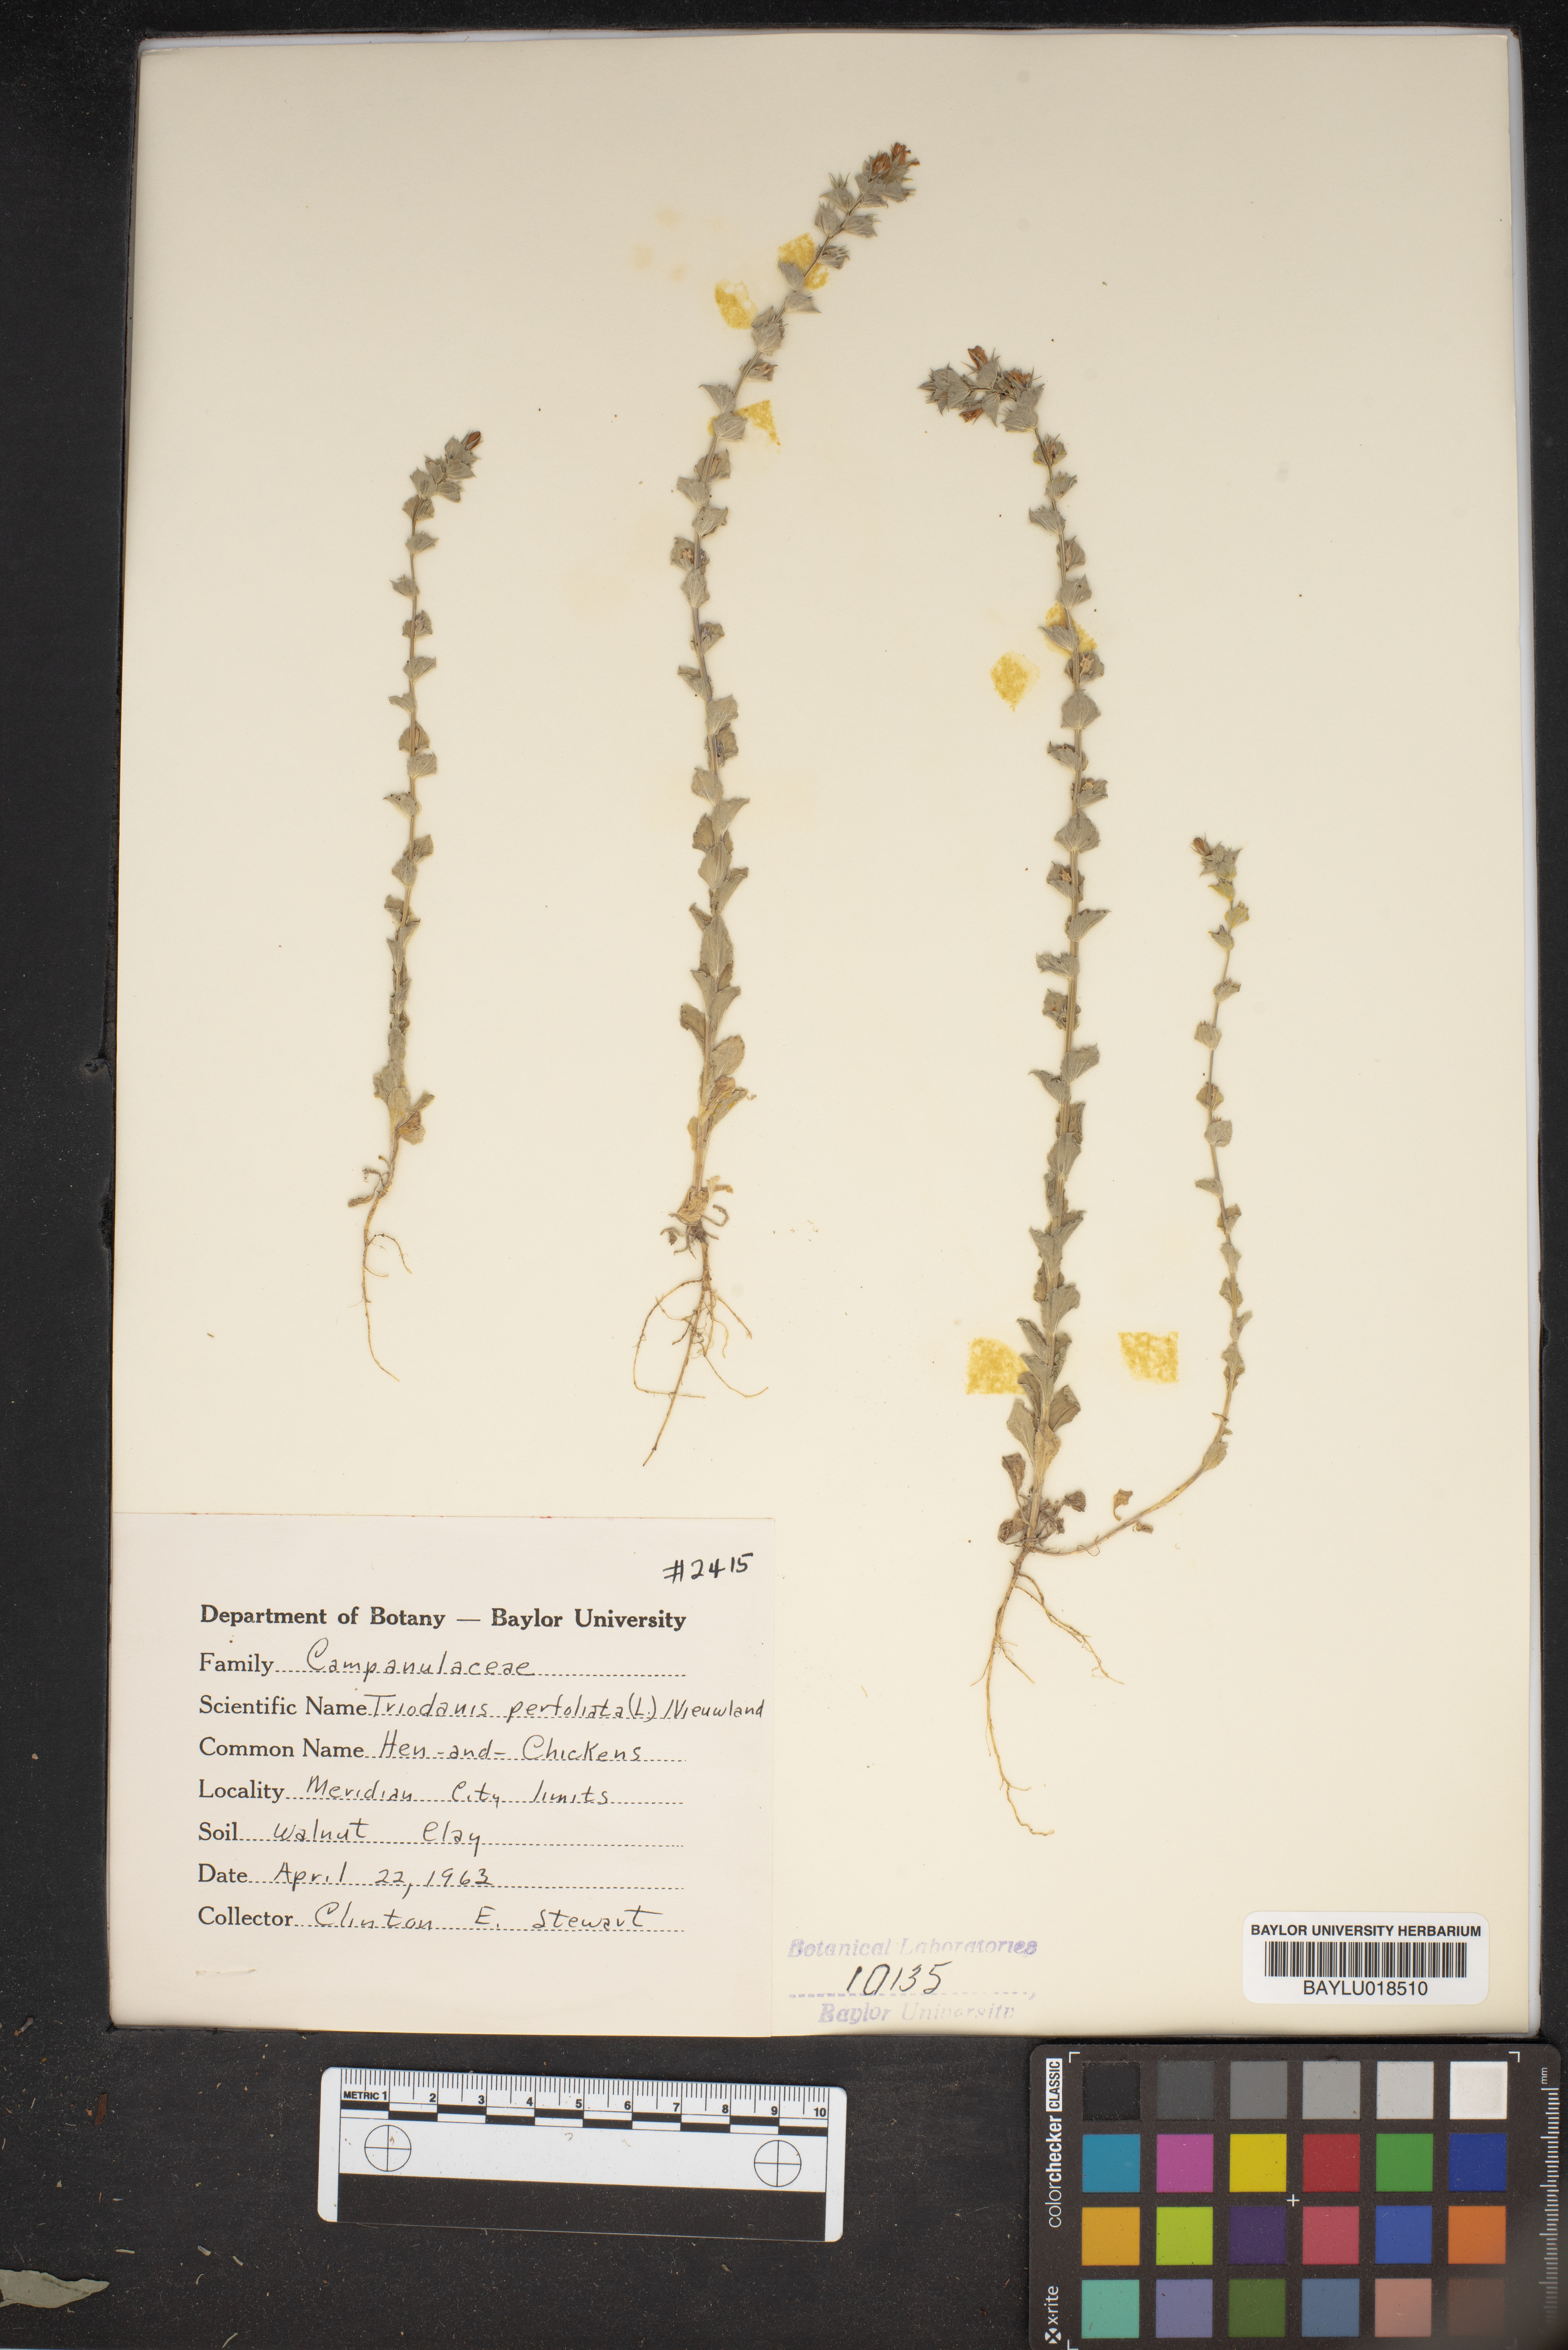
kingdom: Plantae
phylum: Tracheophyta
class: Magnoliopsida
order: Asterales
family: Campanulaceae
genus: Triodanis
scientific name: Triodanis perfoliata
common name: Clasping venus' looking-glass
